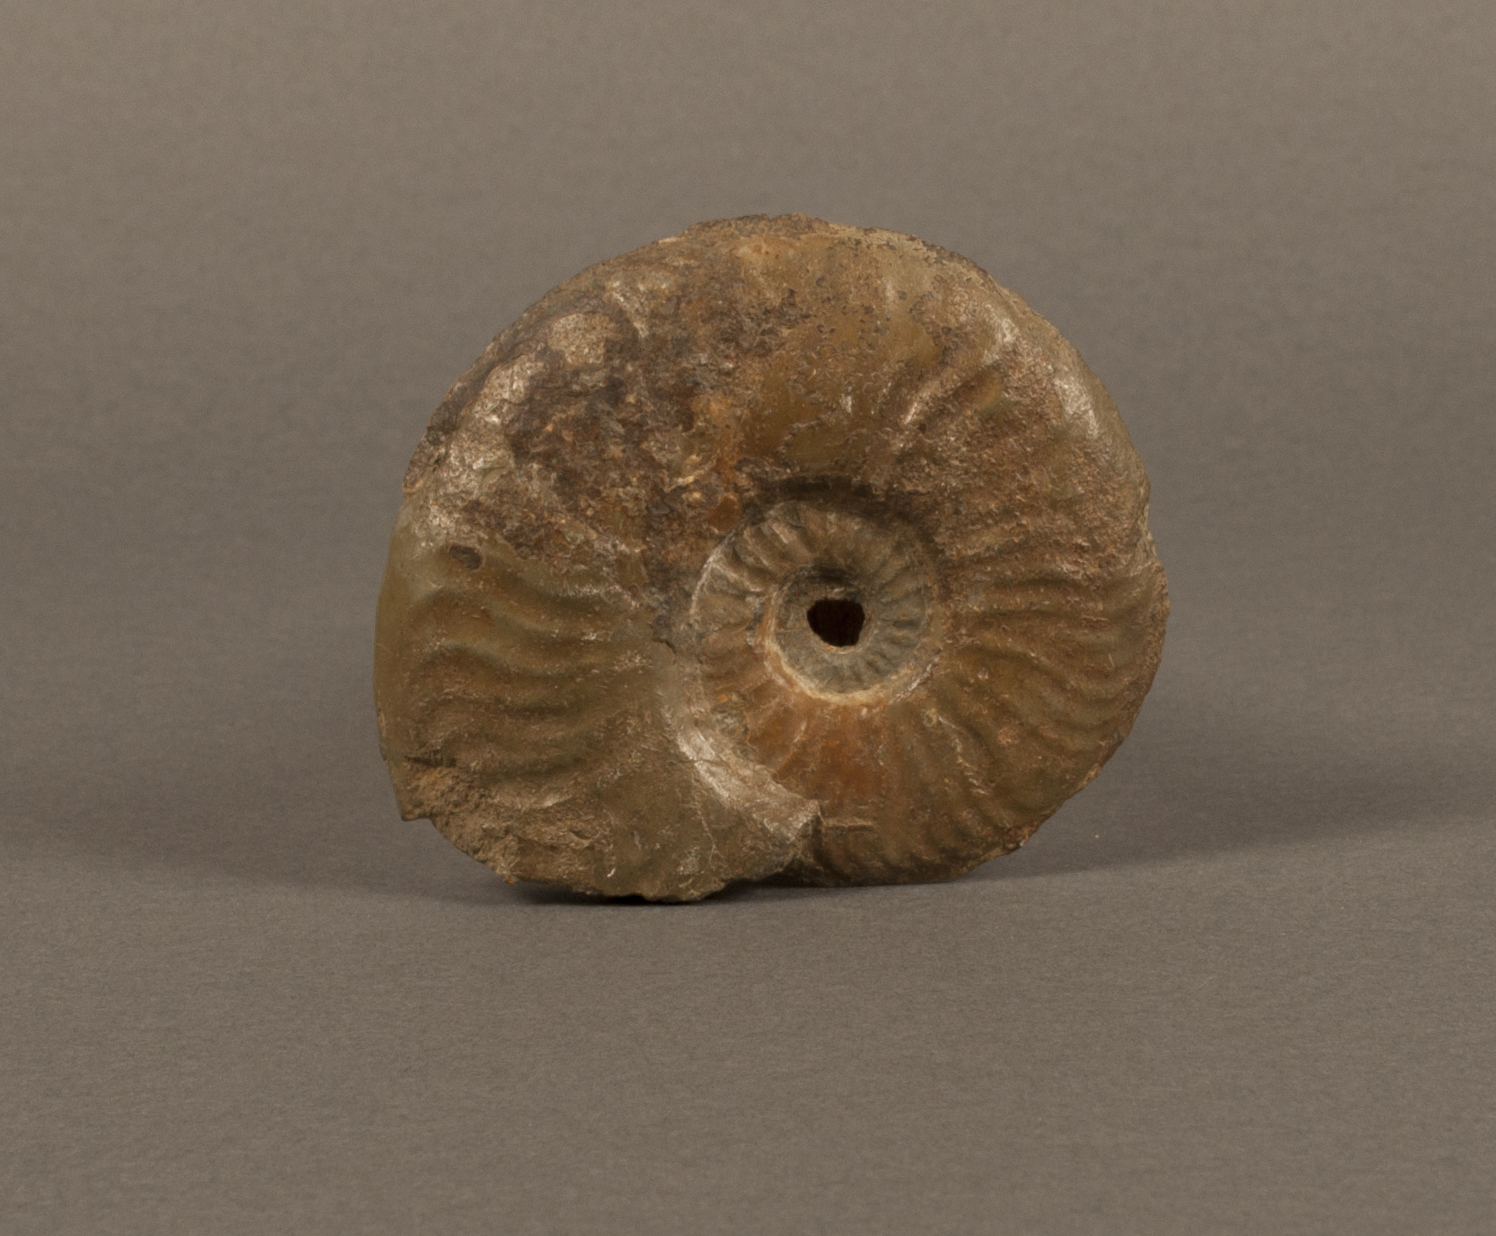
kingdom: Animalia
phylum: Mollusca
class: Cephalopoda
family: Hildoceratidae
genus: Pleydellia
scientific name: Pleydellia aalensis
